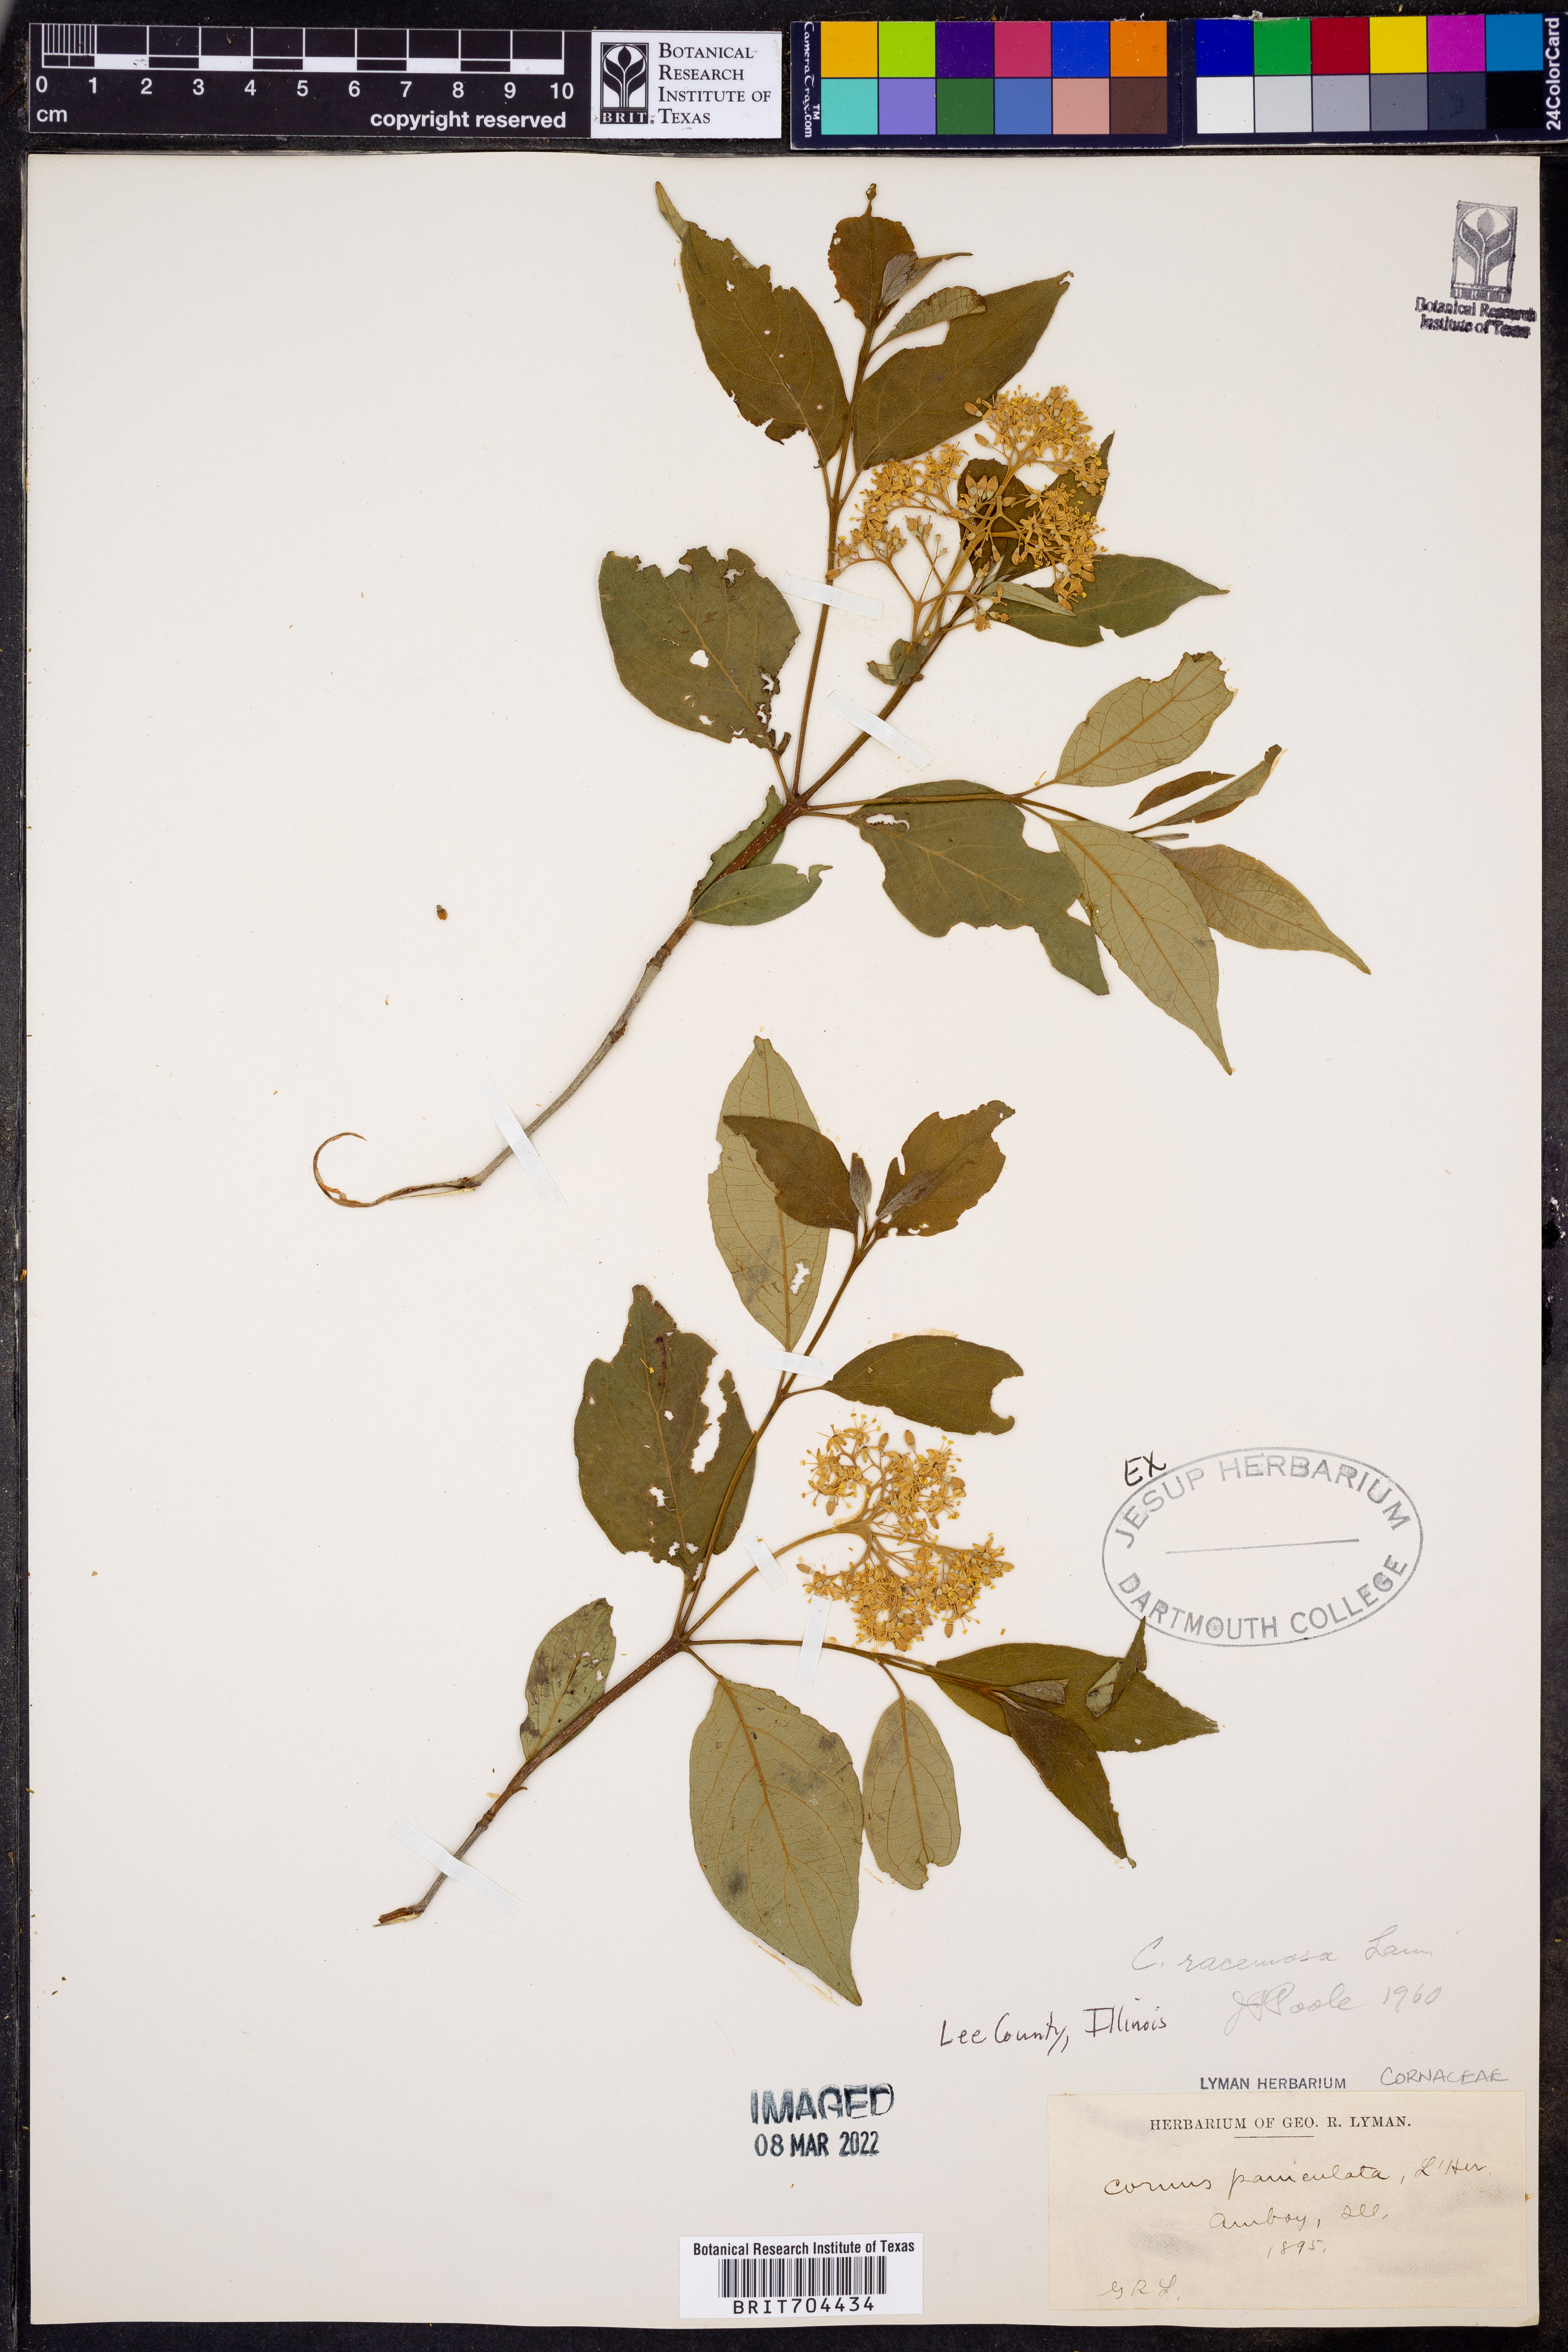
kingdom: Plantae
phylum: Tracheophyta
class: Magnoliopsida
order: Cornales
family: Cornaceae
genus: Cornus
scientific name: Cornus racemosa
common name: Panicled dogwood
